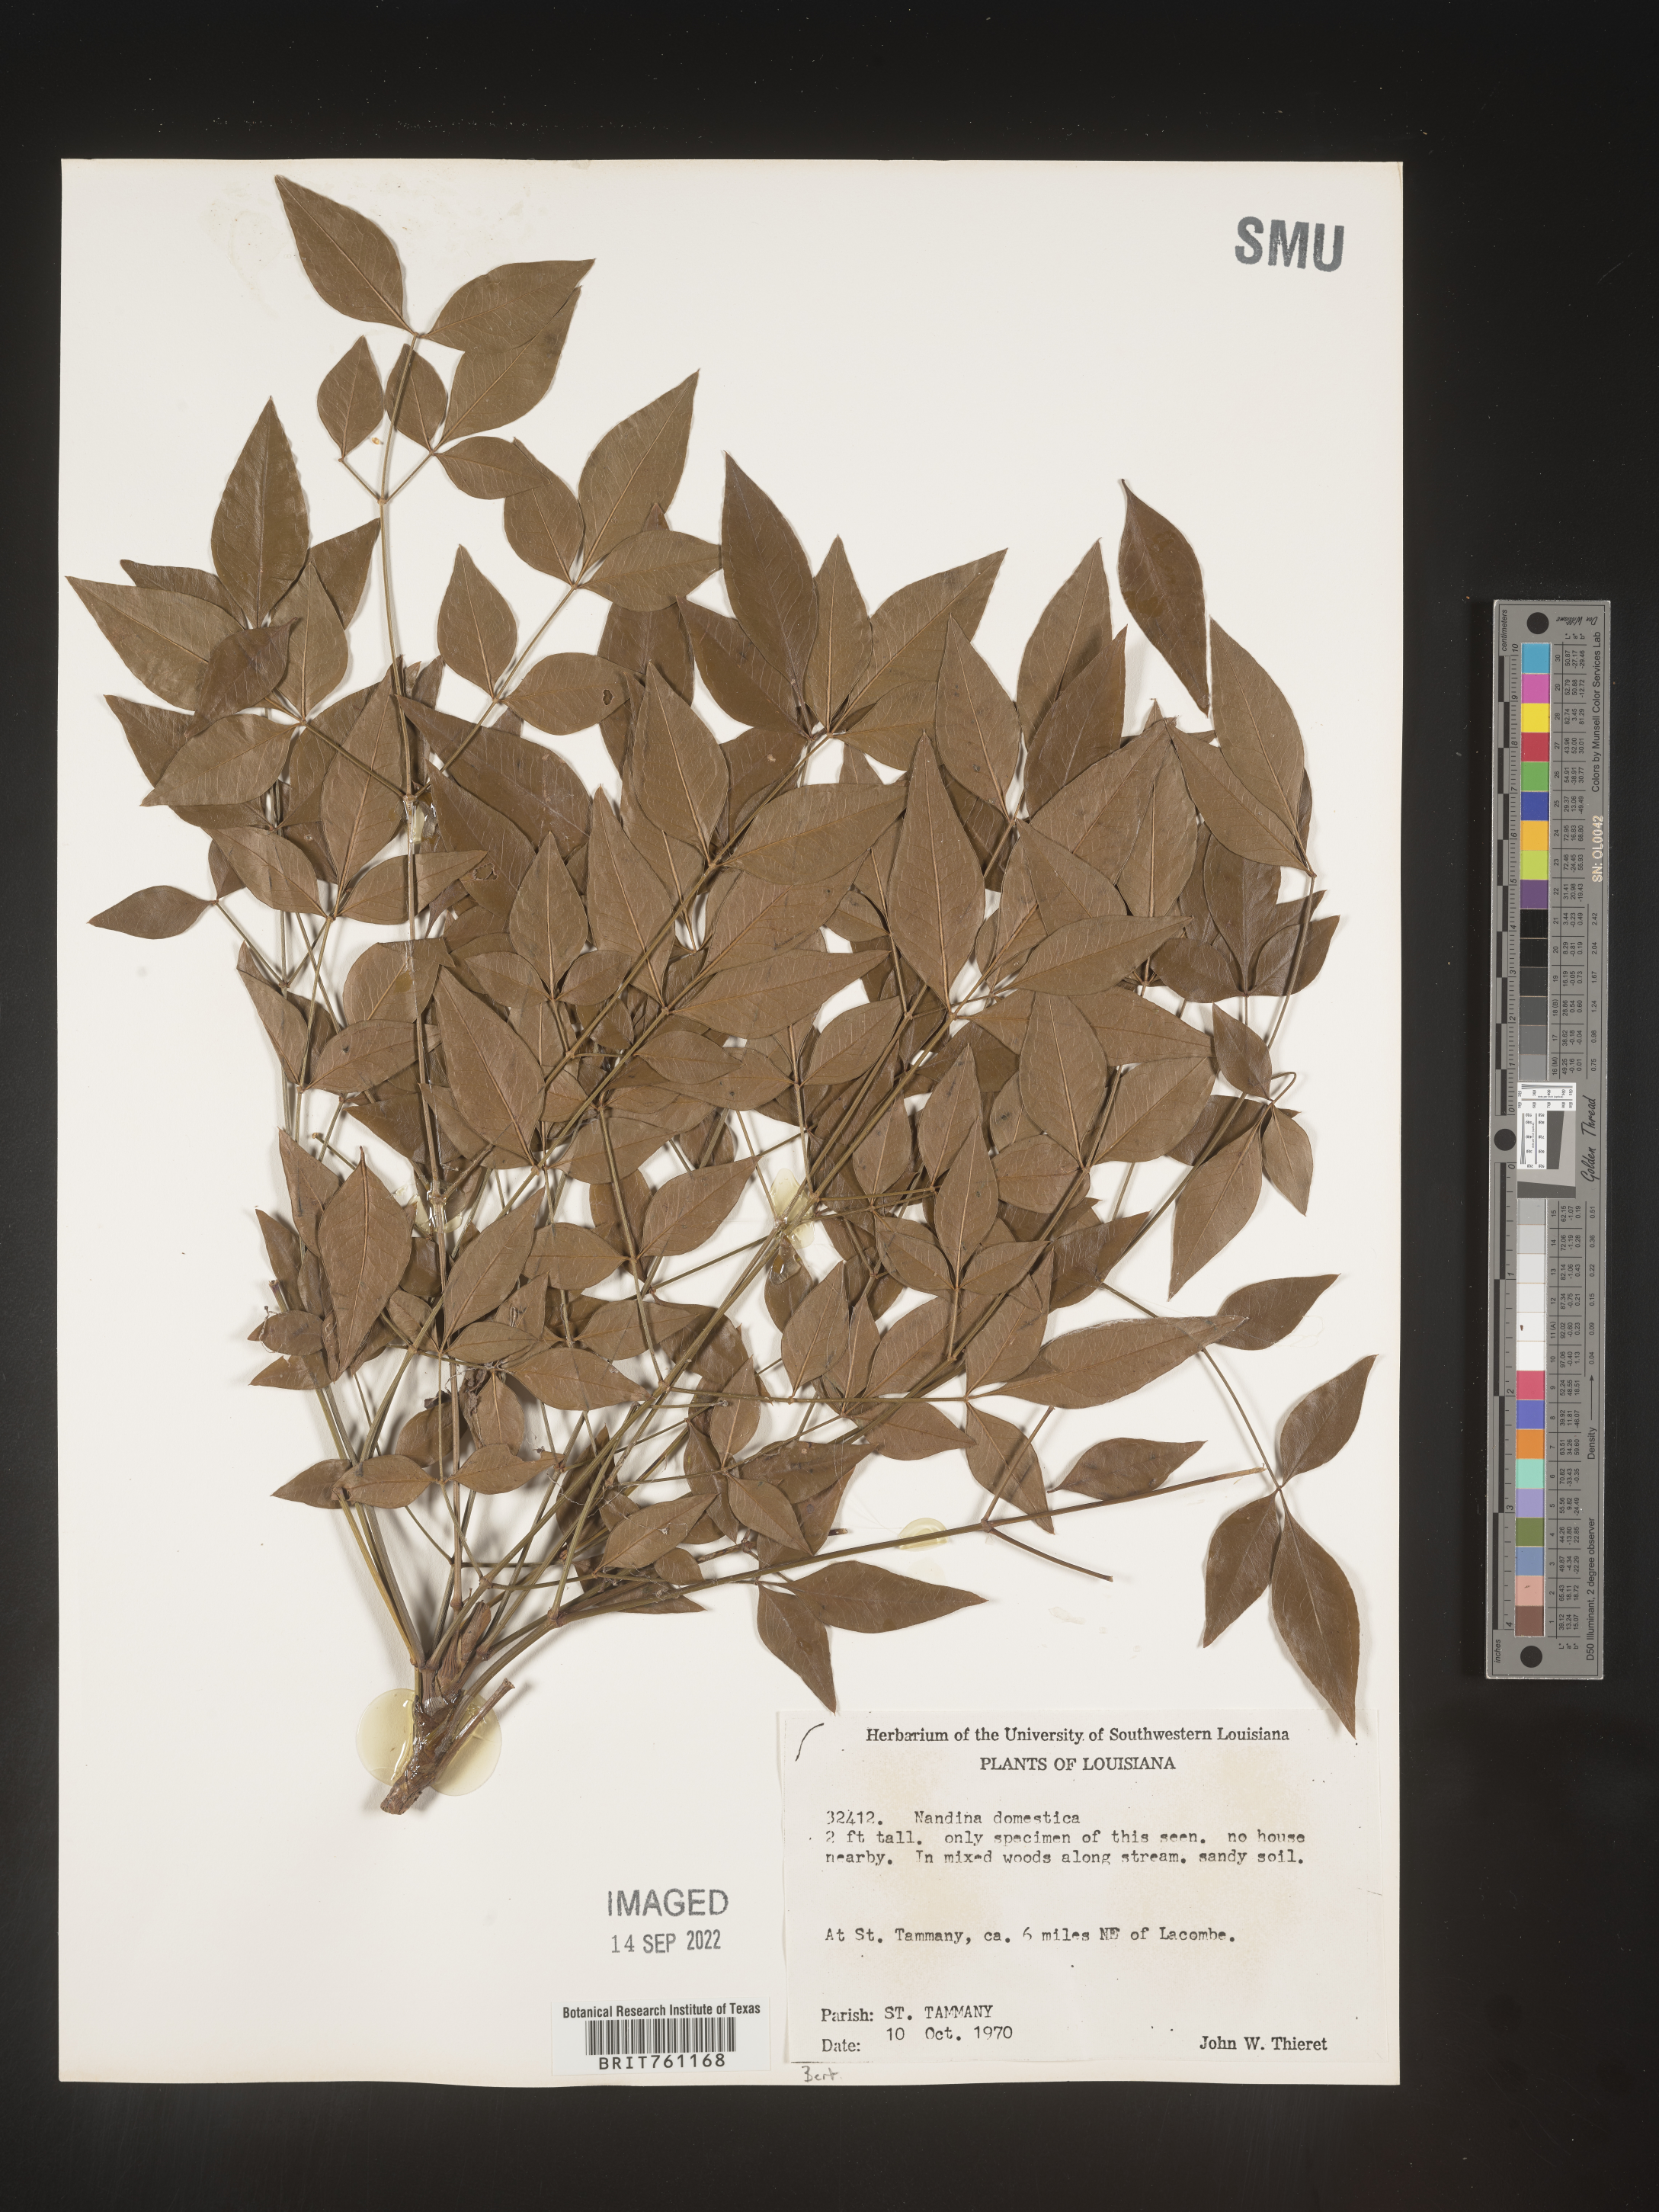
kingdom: Plantae
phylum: Tracheophyta
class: Magnoliopsida
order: Ranunculales
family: Berberidaceae
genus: Nandina
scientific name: Nandina
